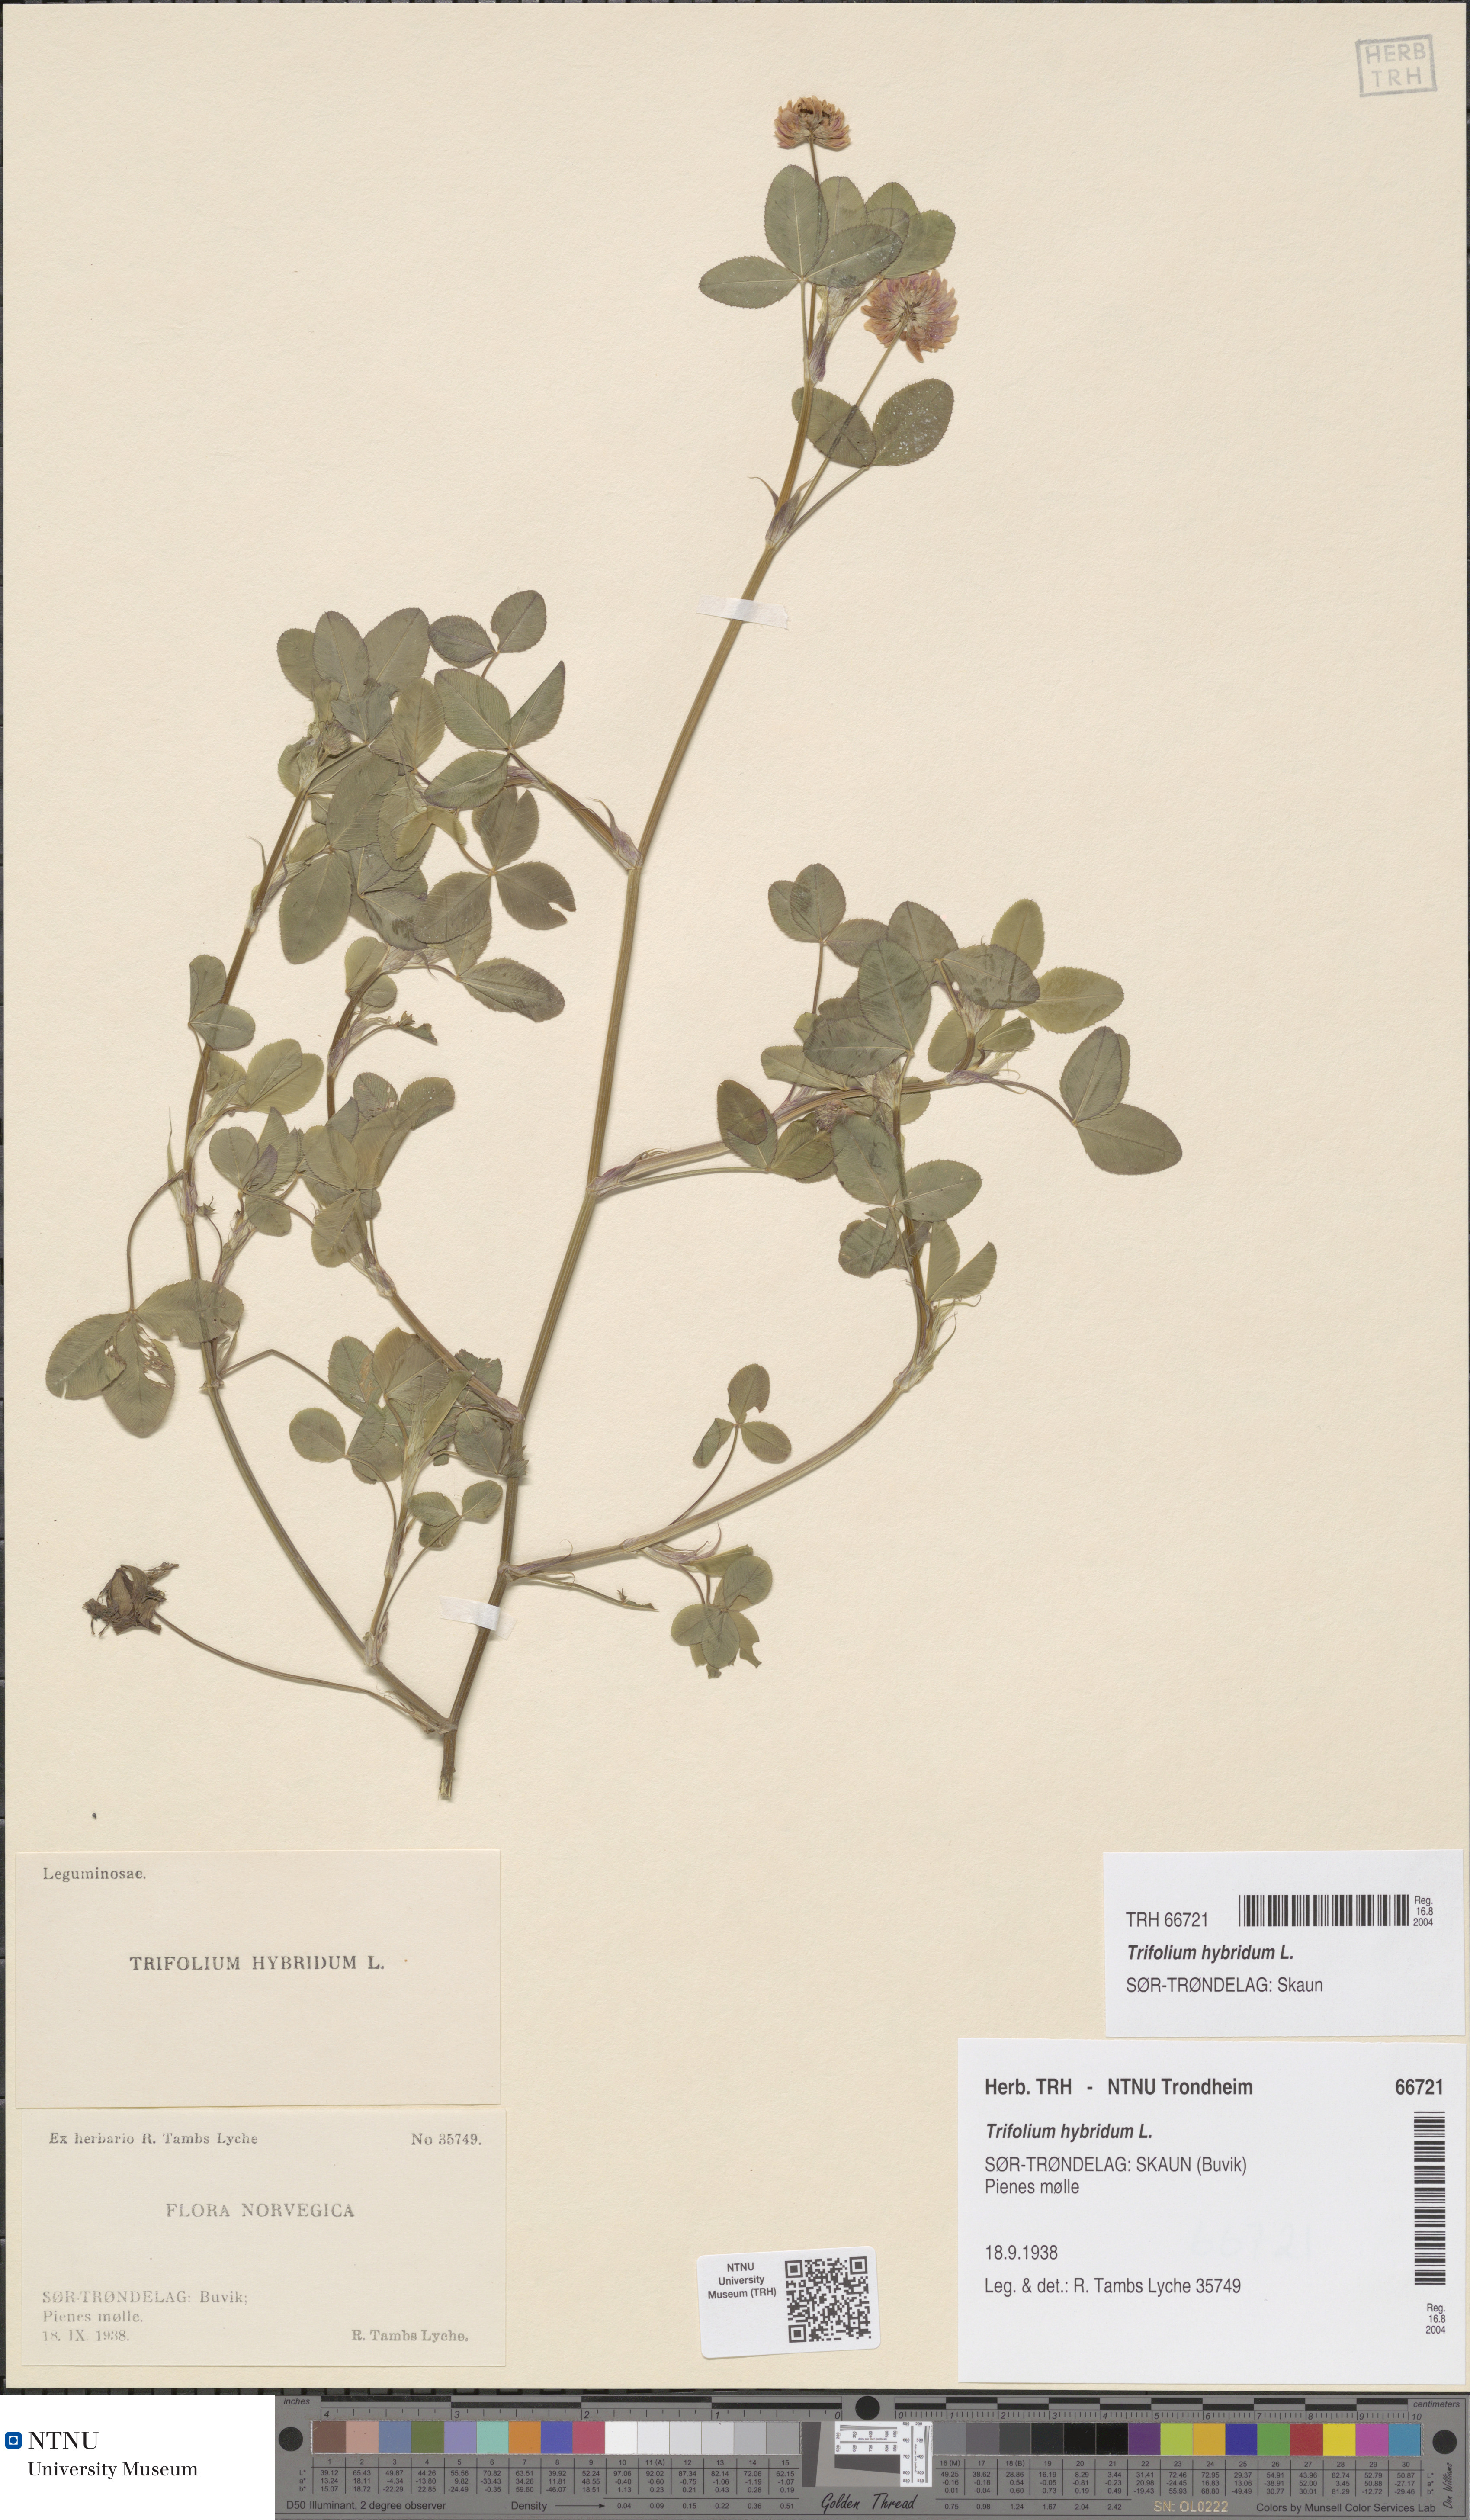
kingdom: Plantae
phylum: Tracheophyta
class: Magnoliopsida
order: Fabales
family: Fabaceae
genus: Trifolium
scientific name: Trifolium hybridum
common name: Alsike clover
